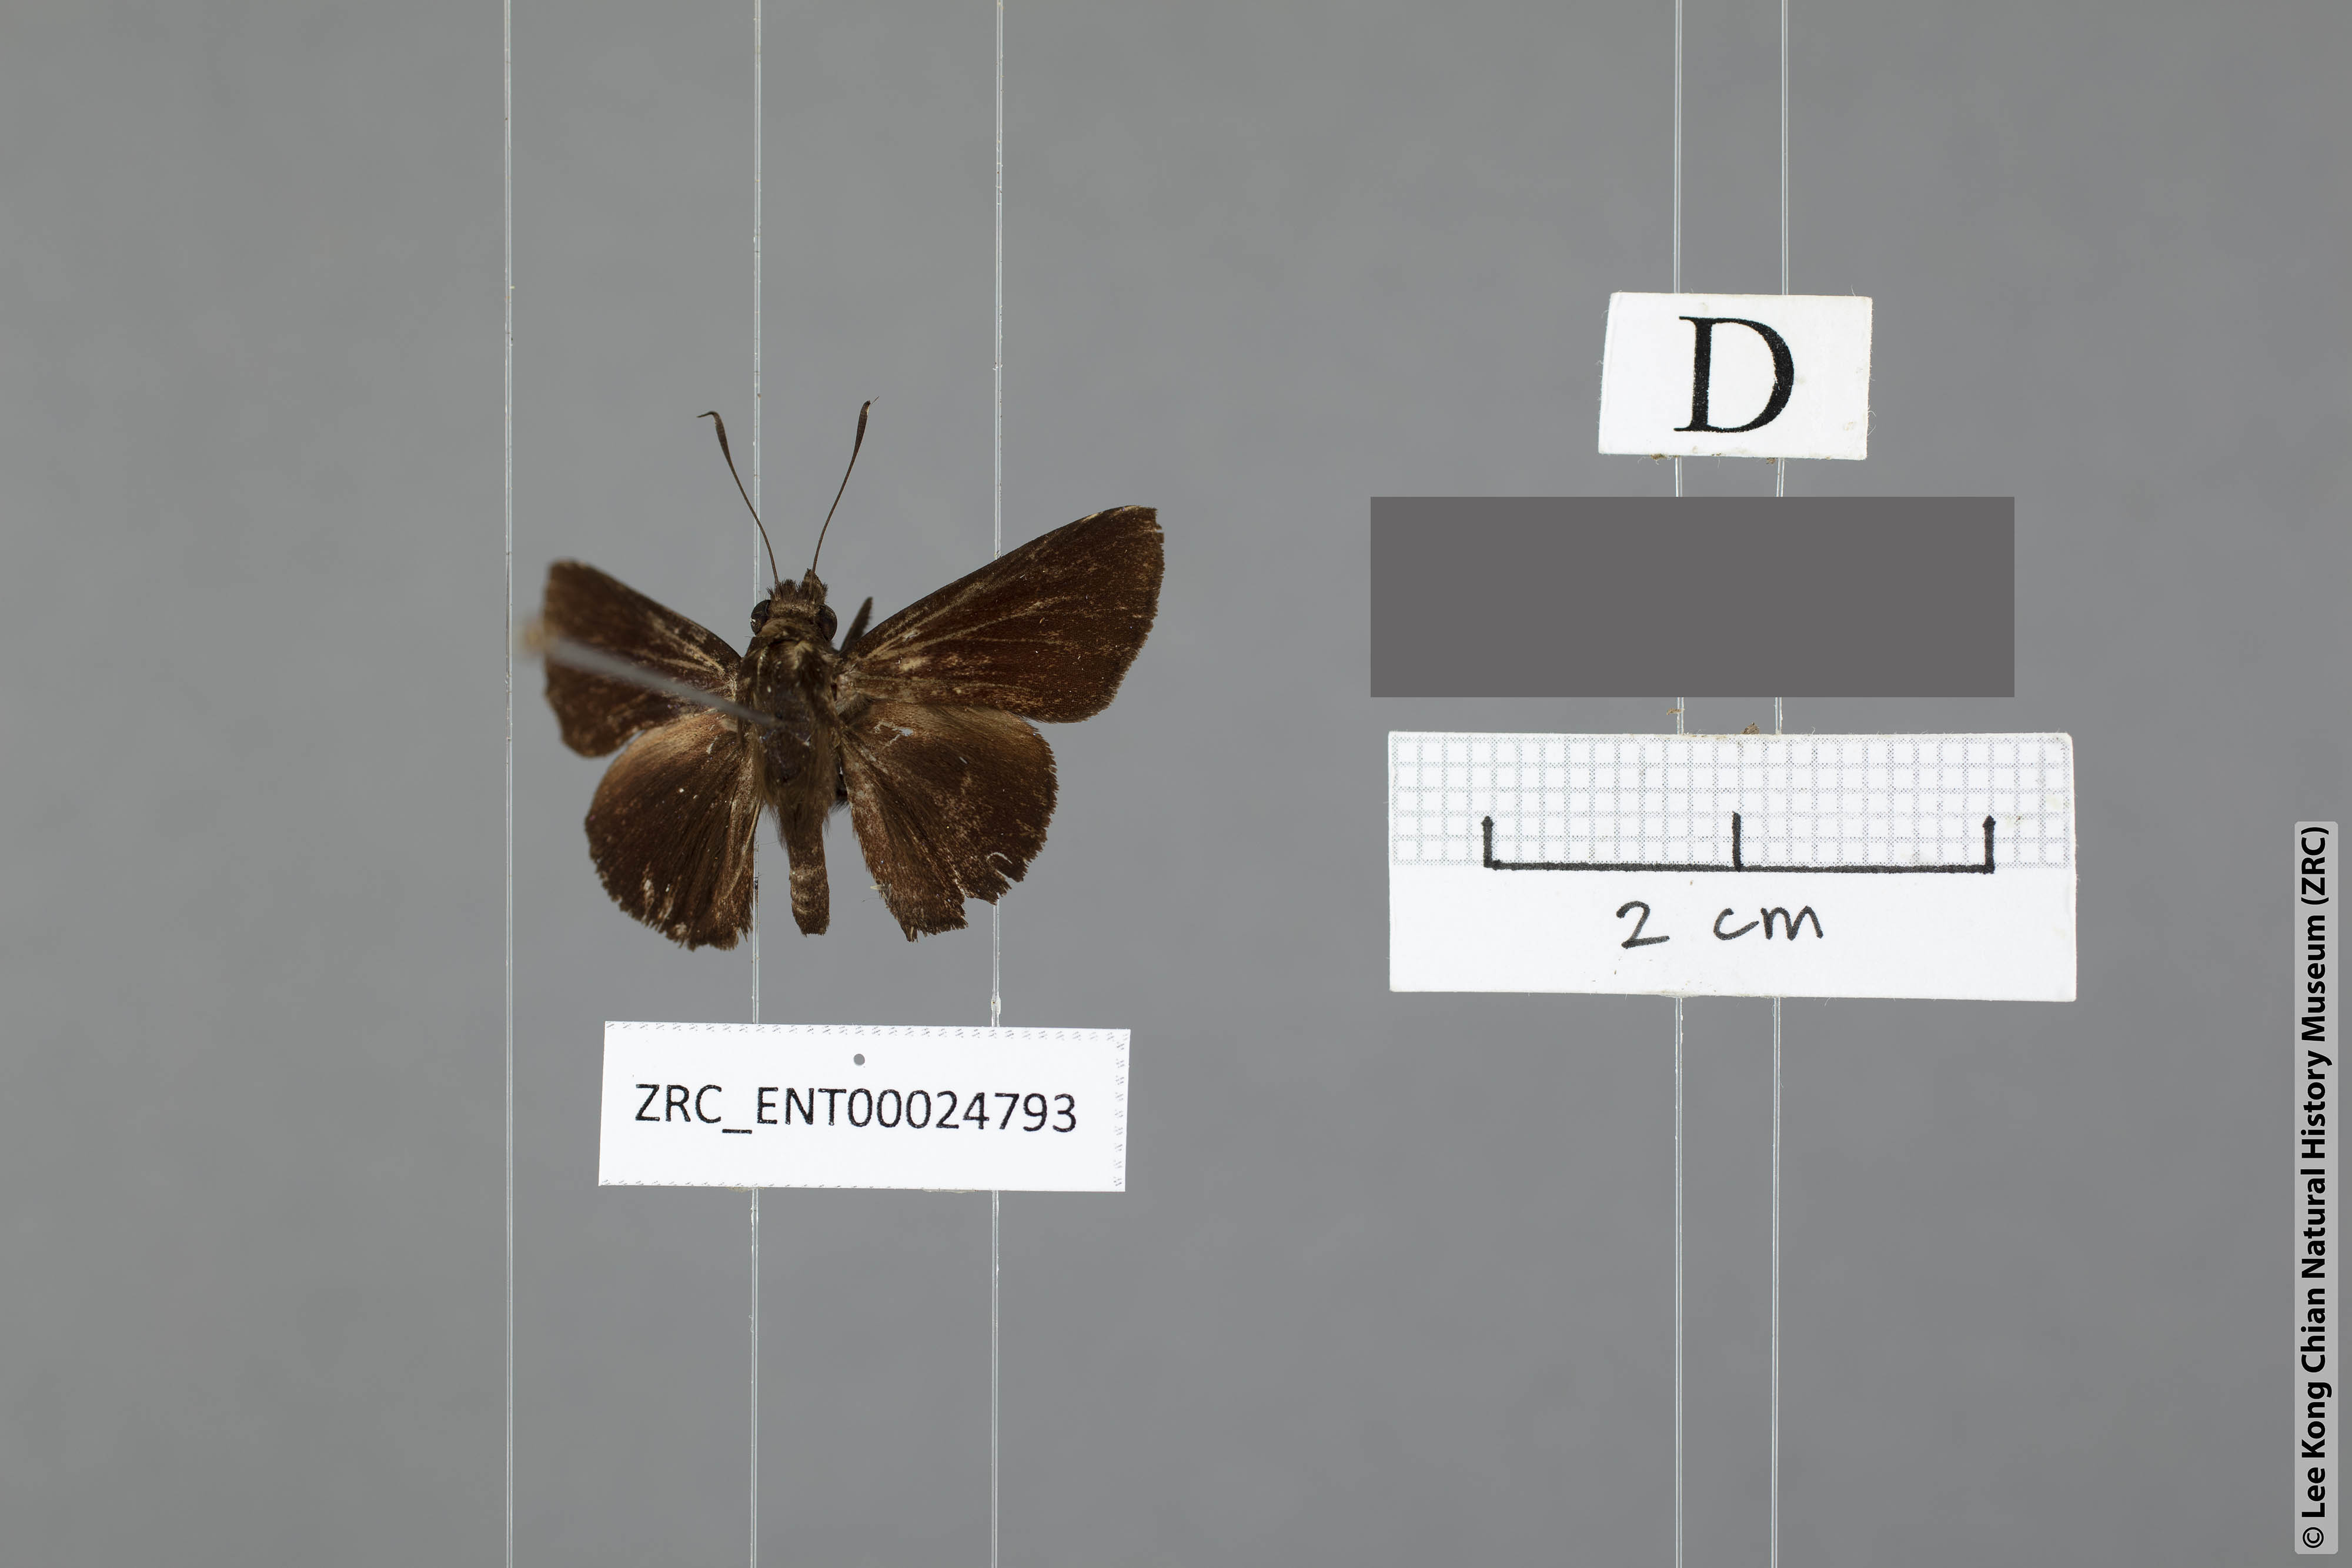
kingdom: Animalia
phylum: Arthropoda
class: Insecta
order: Lepidoptera
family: Hesperiidae
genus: Hyarotis
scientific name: Hyarotis iadera
